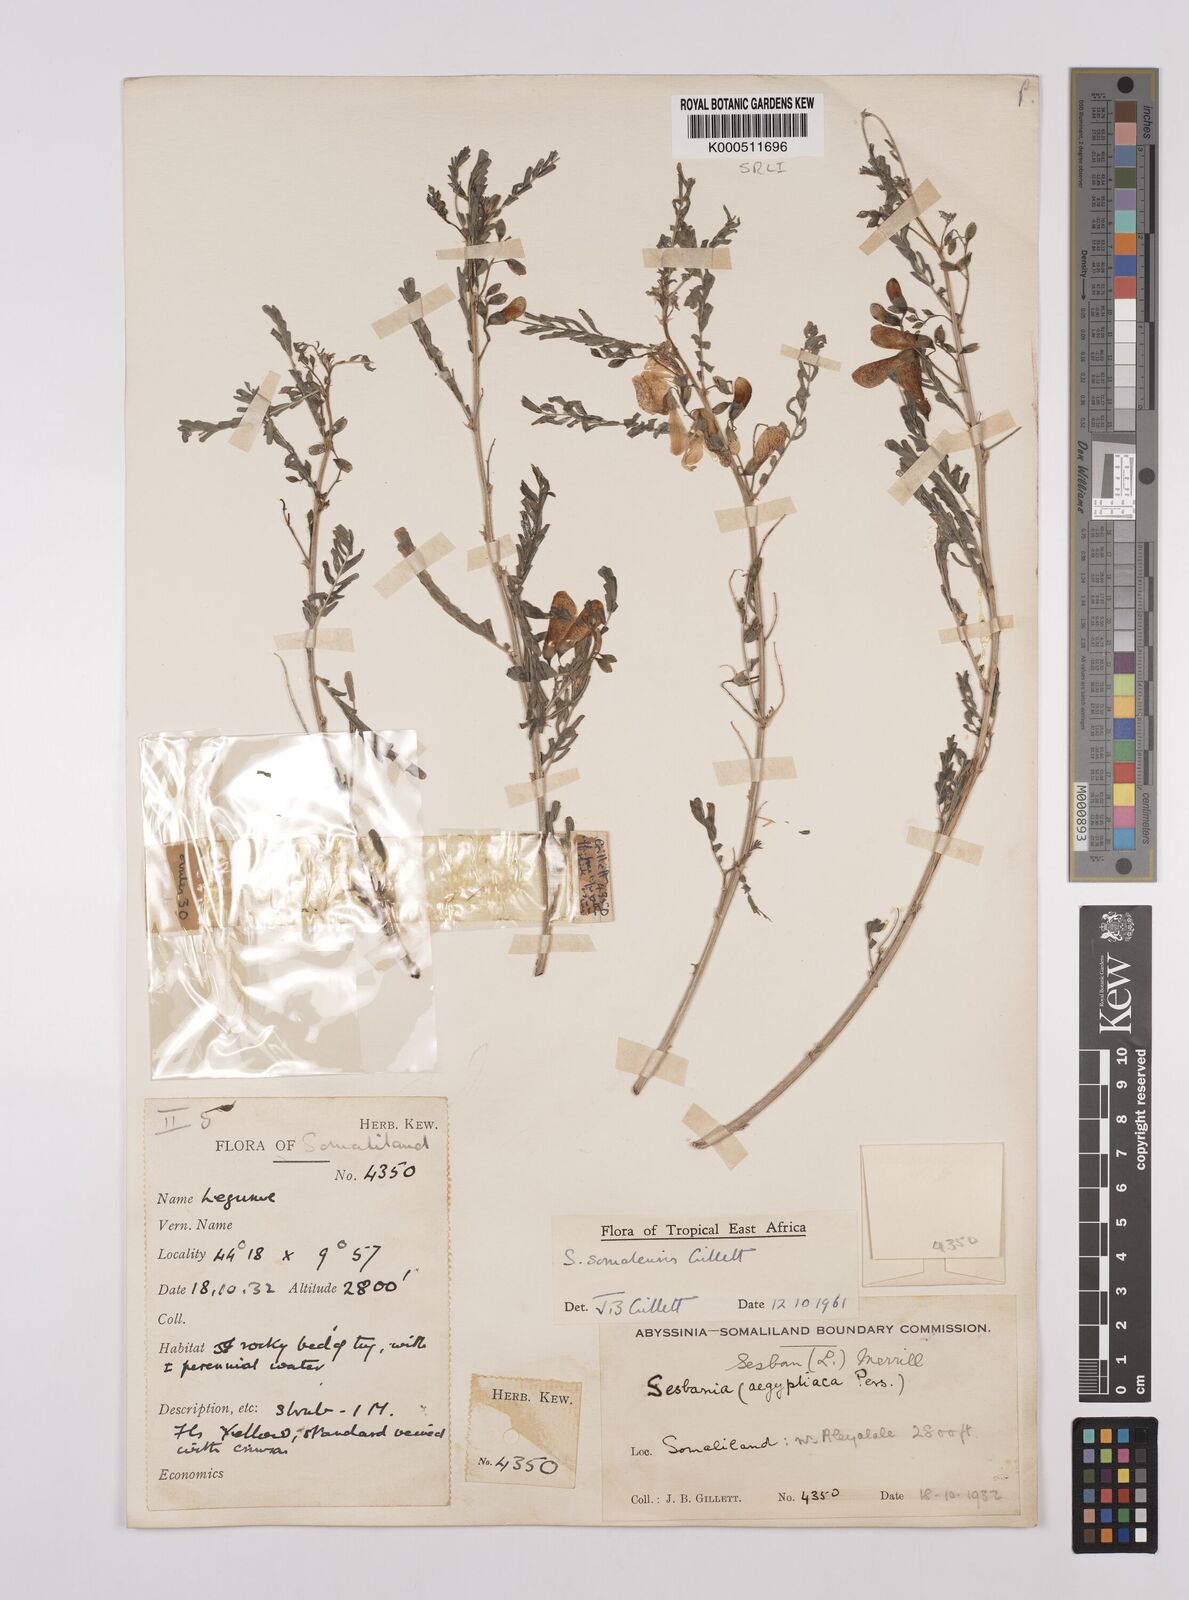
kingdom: Plantae
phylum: Tracheophyta
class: Magnoliopsida
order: Fabales
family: Fabaceae
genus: Sesbania
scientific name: Sesbania somalensis
